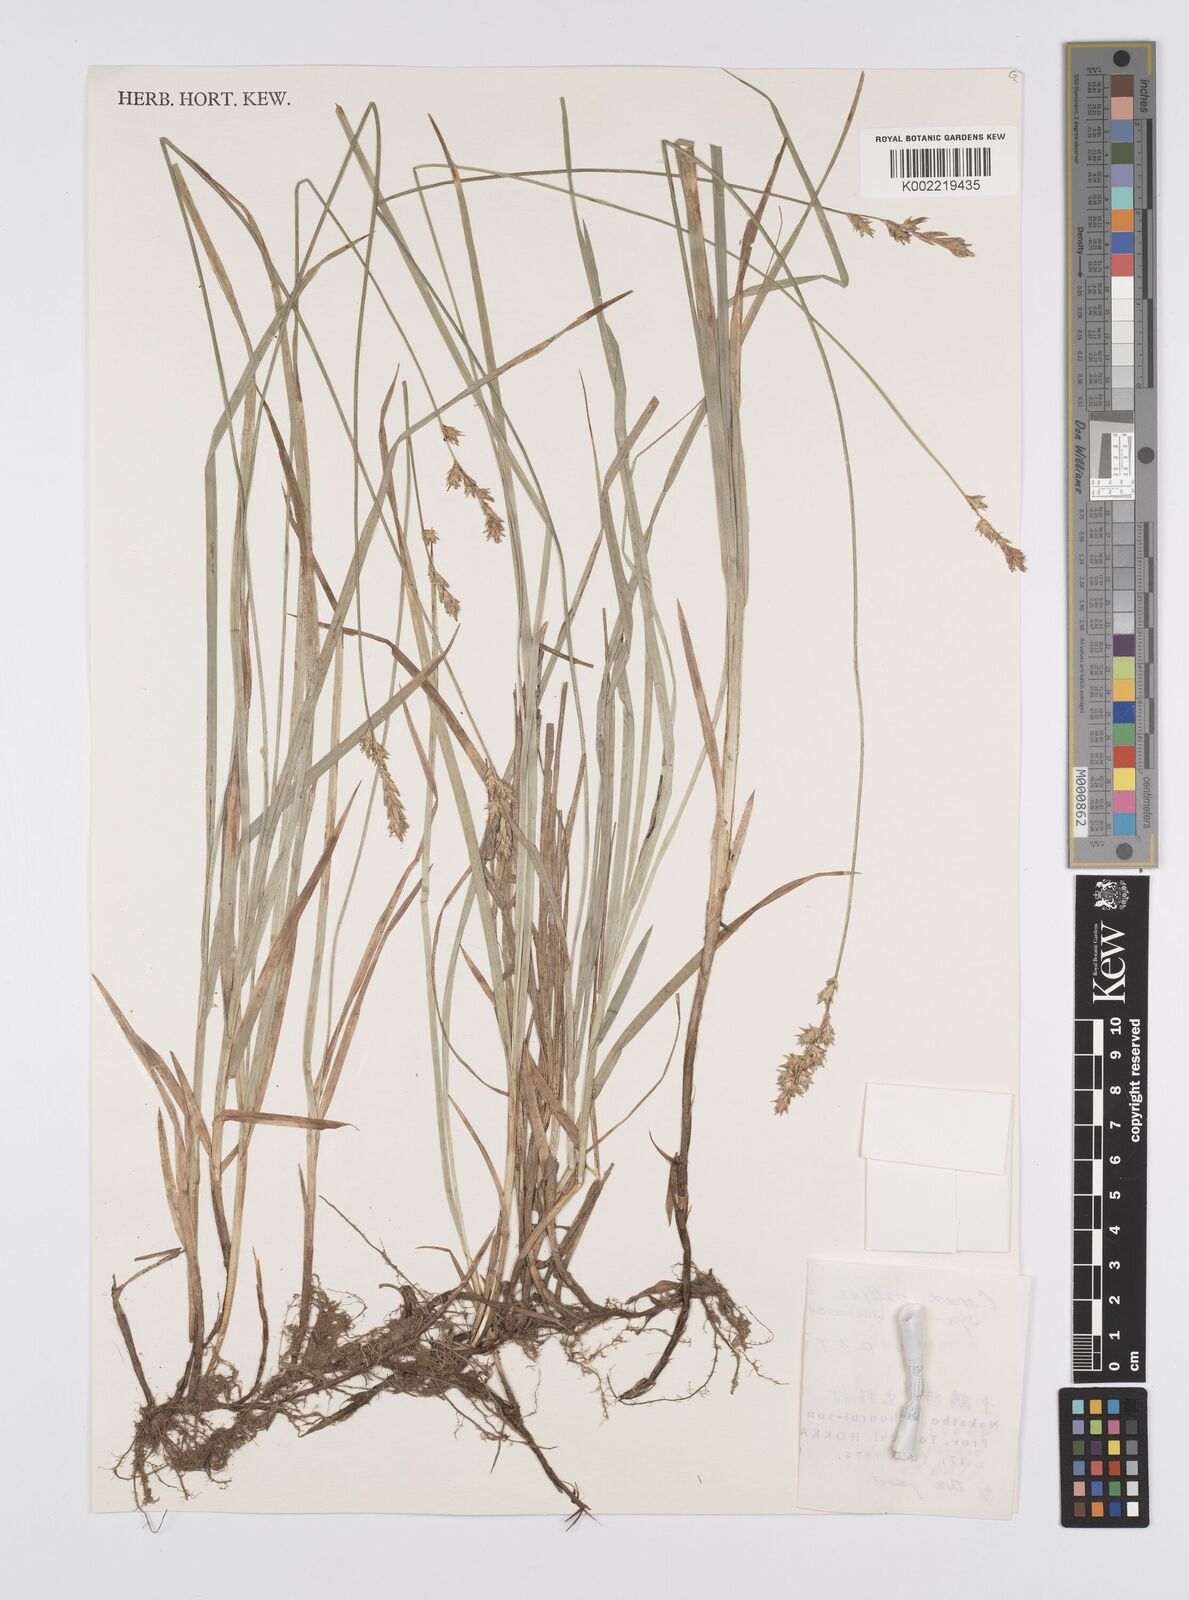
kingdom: Plantae
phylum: Tracheophyta
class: Liliopsida
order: Poales
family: Cyperaceae
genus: Carex
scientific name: Carex accrescens
